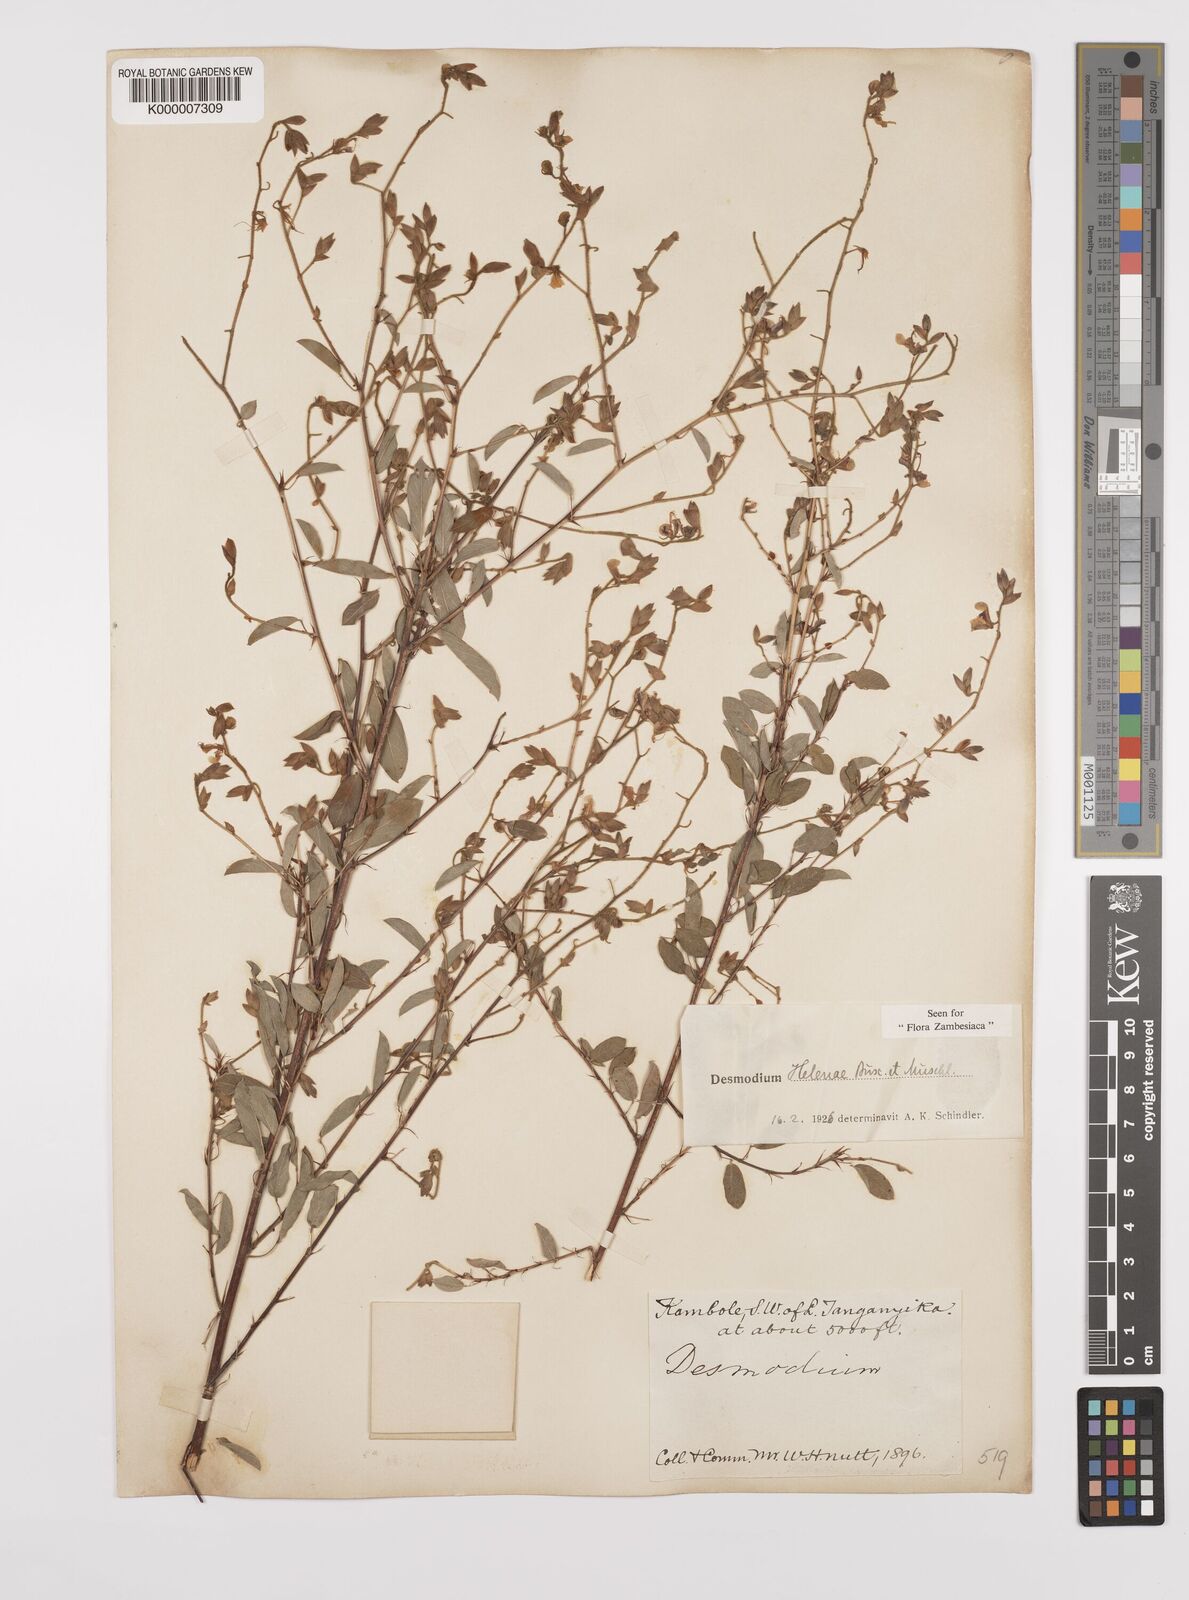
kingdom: Plantae
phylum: Tracheophyta
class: Magnoliopsida
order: Fabales
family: Fabaceae
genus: Grona
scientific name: Grona helenae
